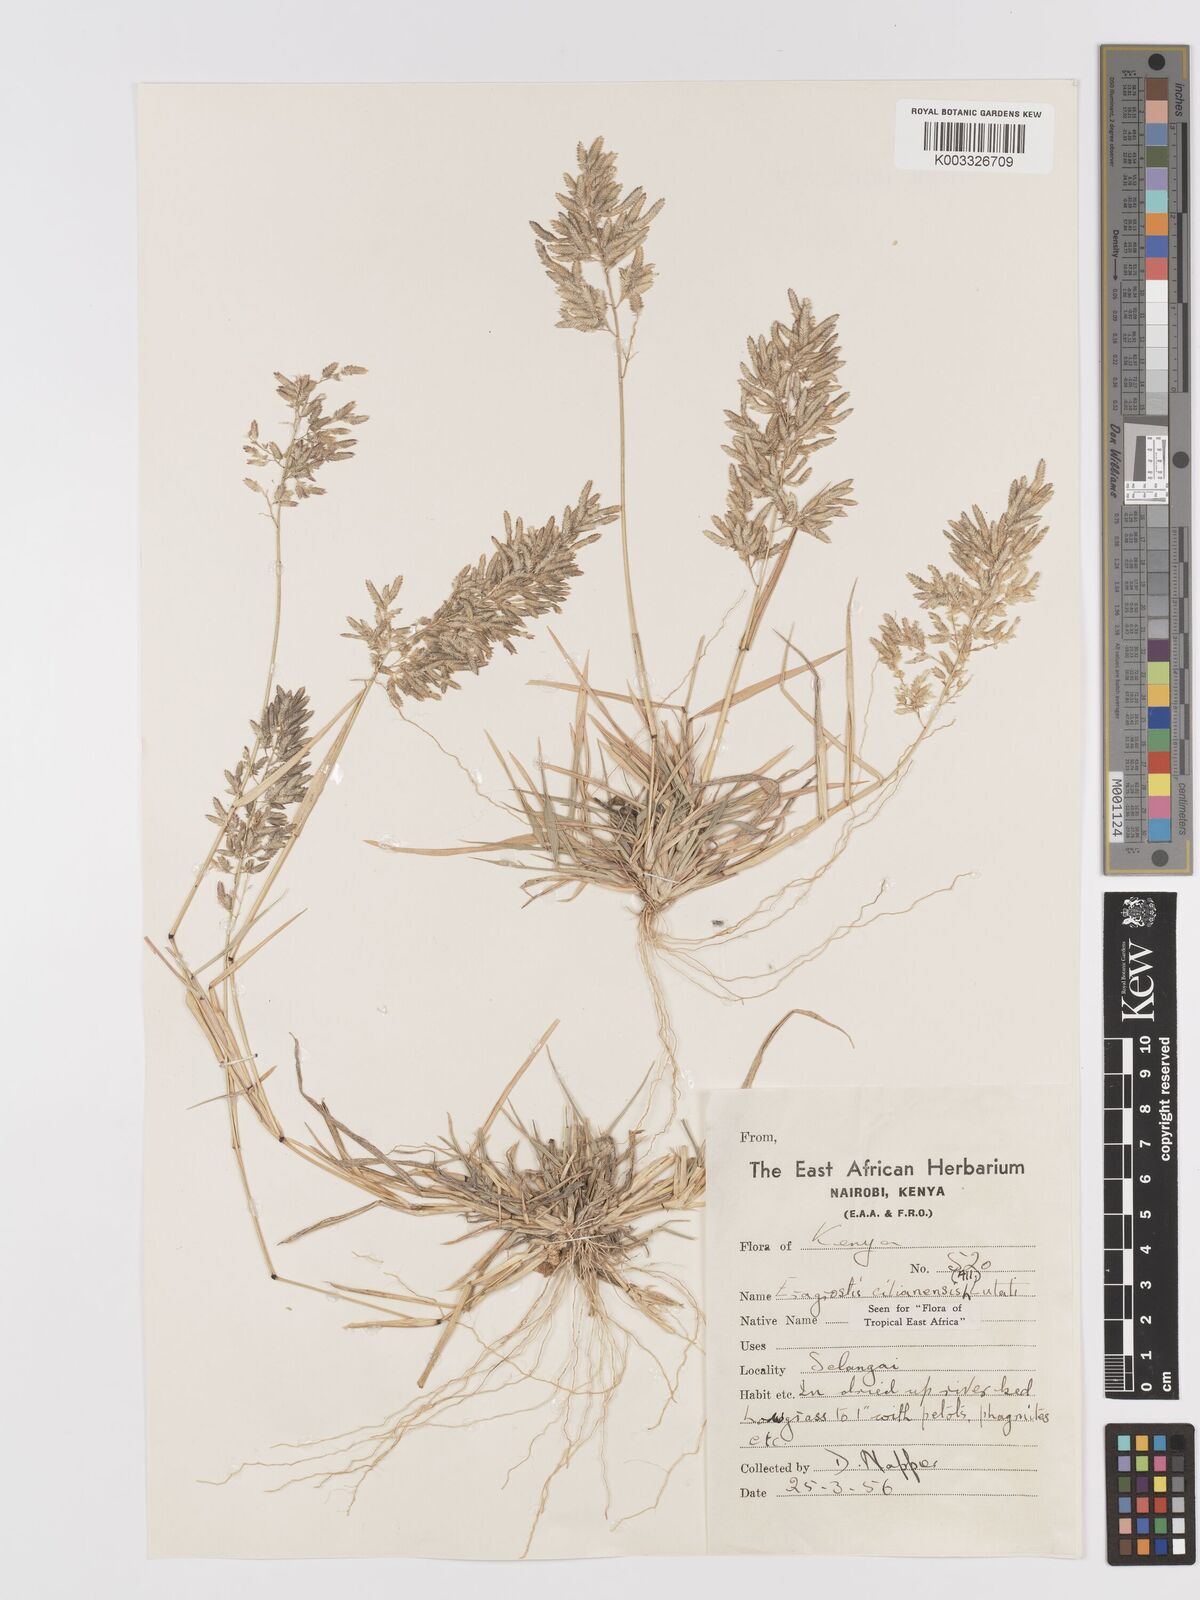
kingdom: Plantae
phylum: Tracheophyta
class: Liliopsida
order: Poales
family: Poaceae
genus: Eragrostis
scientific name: Eragrostis cilianensis
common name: Stinkgrass
